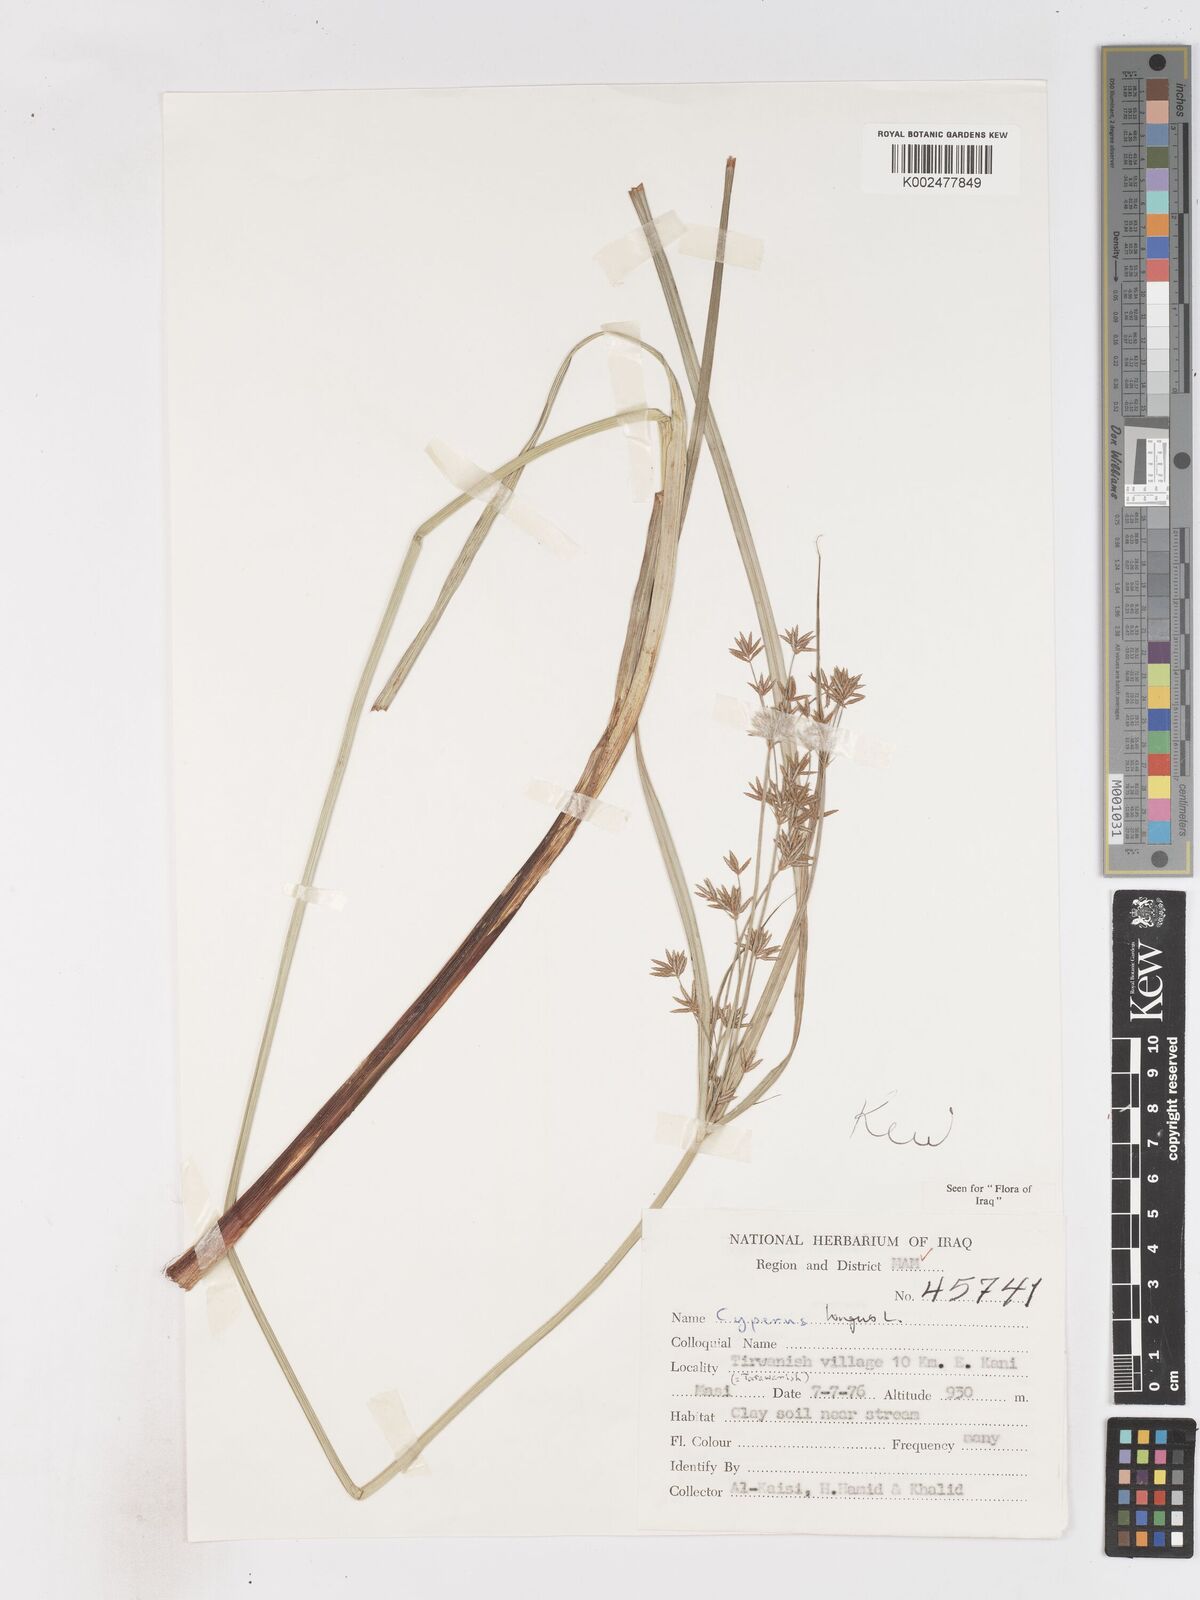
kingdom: Plantae
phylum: Tracheophyta
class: Liliopsida
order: Poales
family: Cyperaceae
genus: Cyperus
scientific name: Cyperus longus
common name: Galingale
